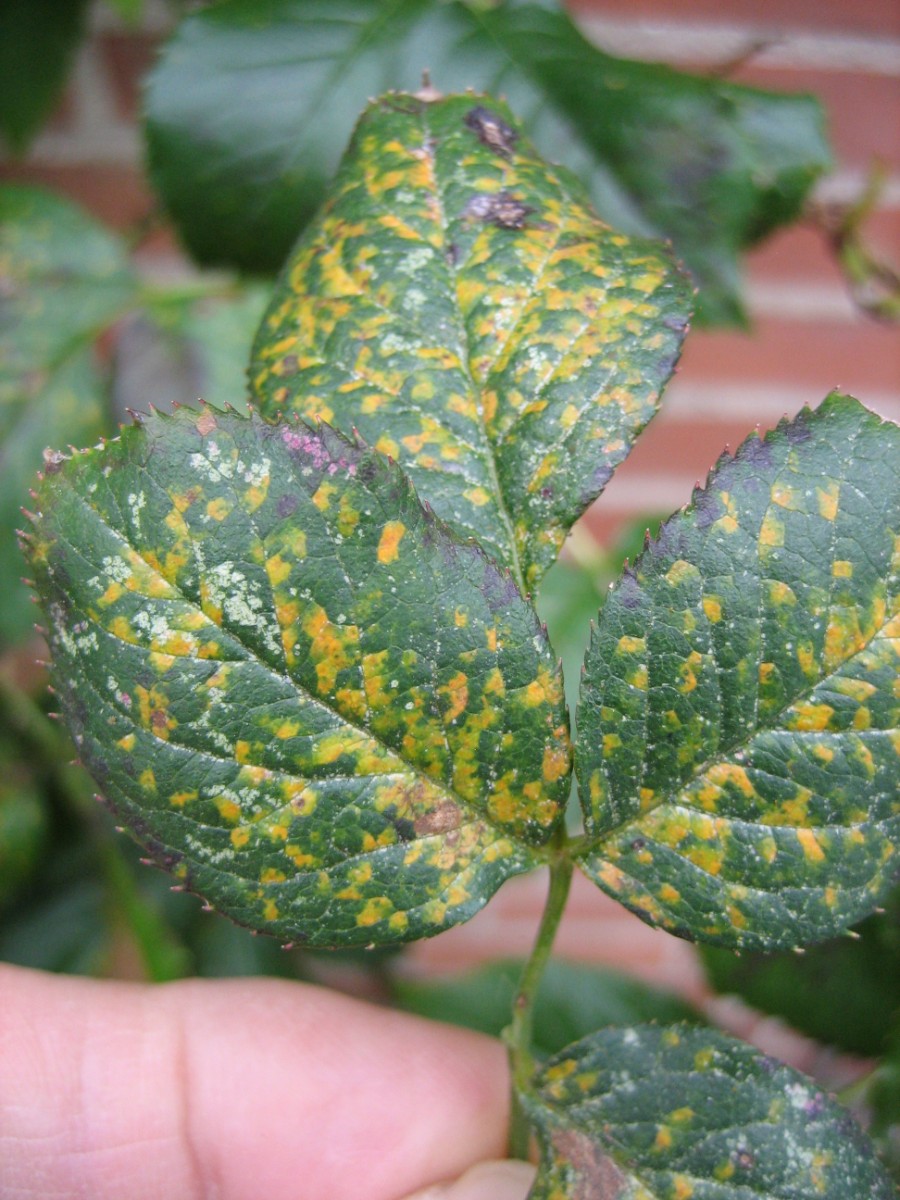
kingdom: Fungi
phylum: Basidiomycota
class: Pucciniomycetes
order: Pucciniales
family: Phragmidiaceae
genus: Phragmidium
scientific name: Phragmidium
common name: flercellerust
